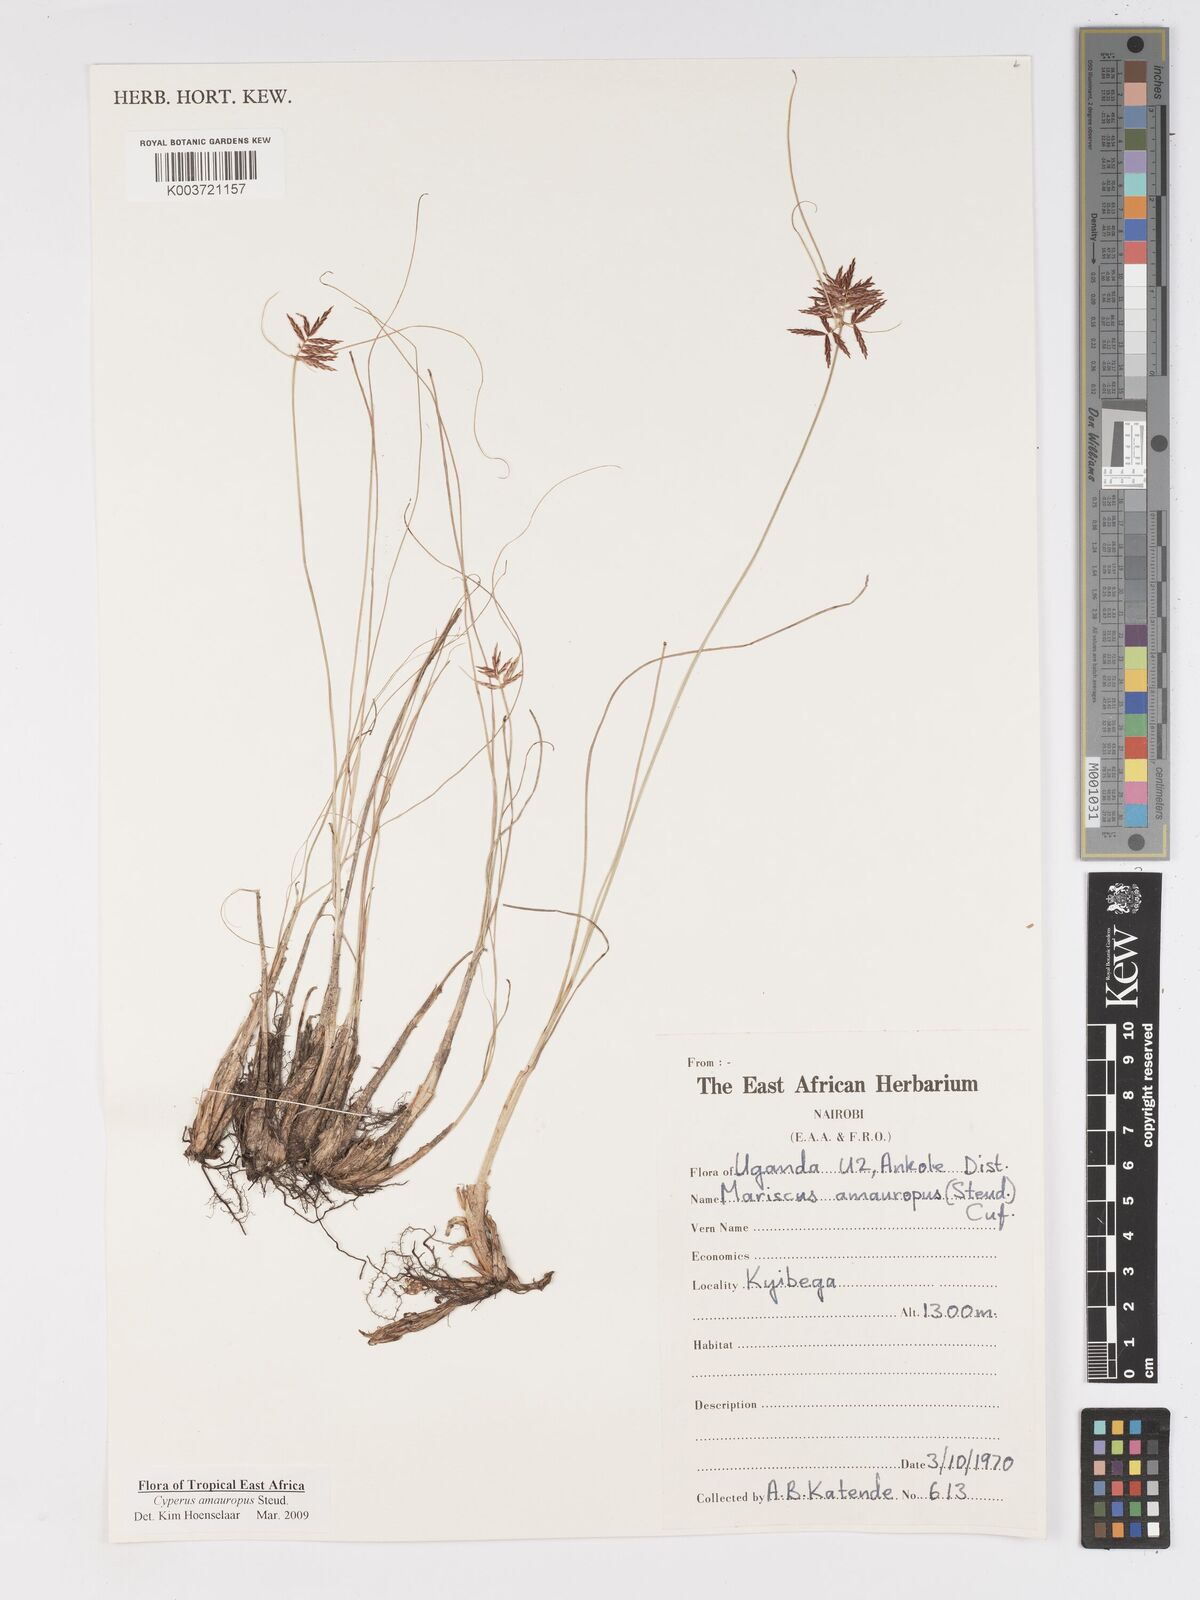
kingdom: Plantae
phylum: Tracheophyta
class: Liliopsida
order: Poales
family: Cyperaceae
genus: Cyperus
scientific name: Cyperus amauropus
